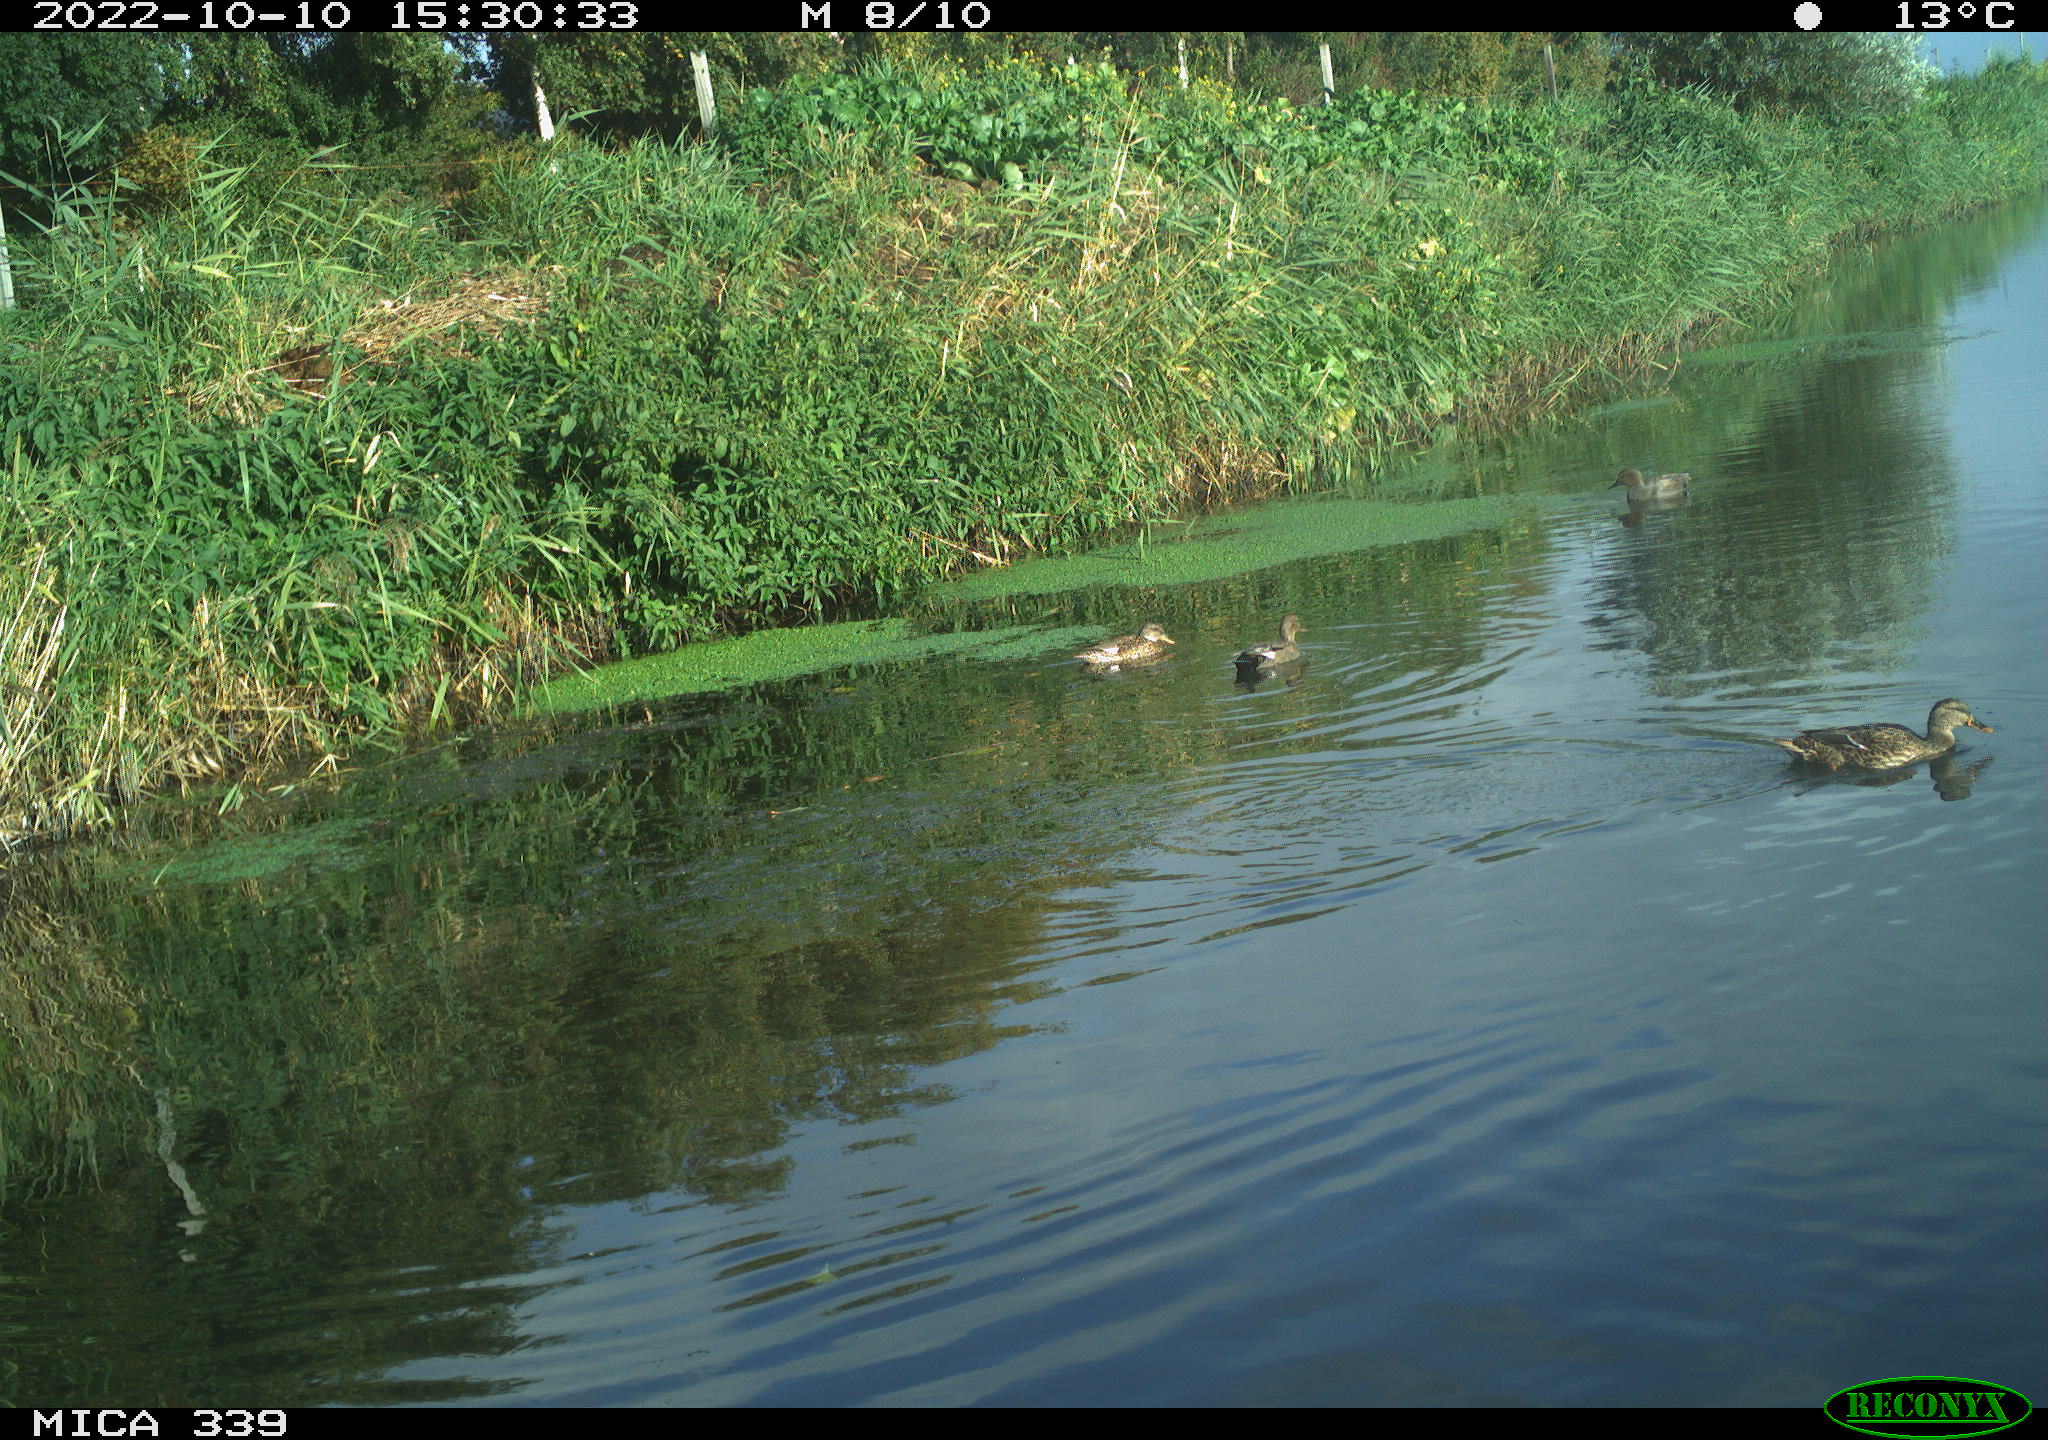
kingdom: Animalia
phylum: Chordata
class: Aves
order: Anseriformes
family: Anatidae
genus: Anas
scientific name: Anas platyrhynchos
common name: Mallard
